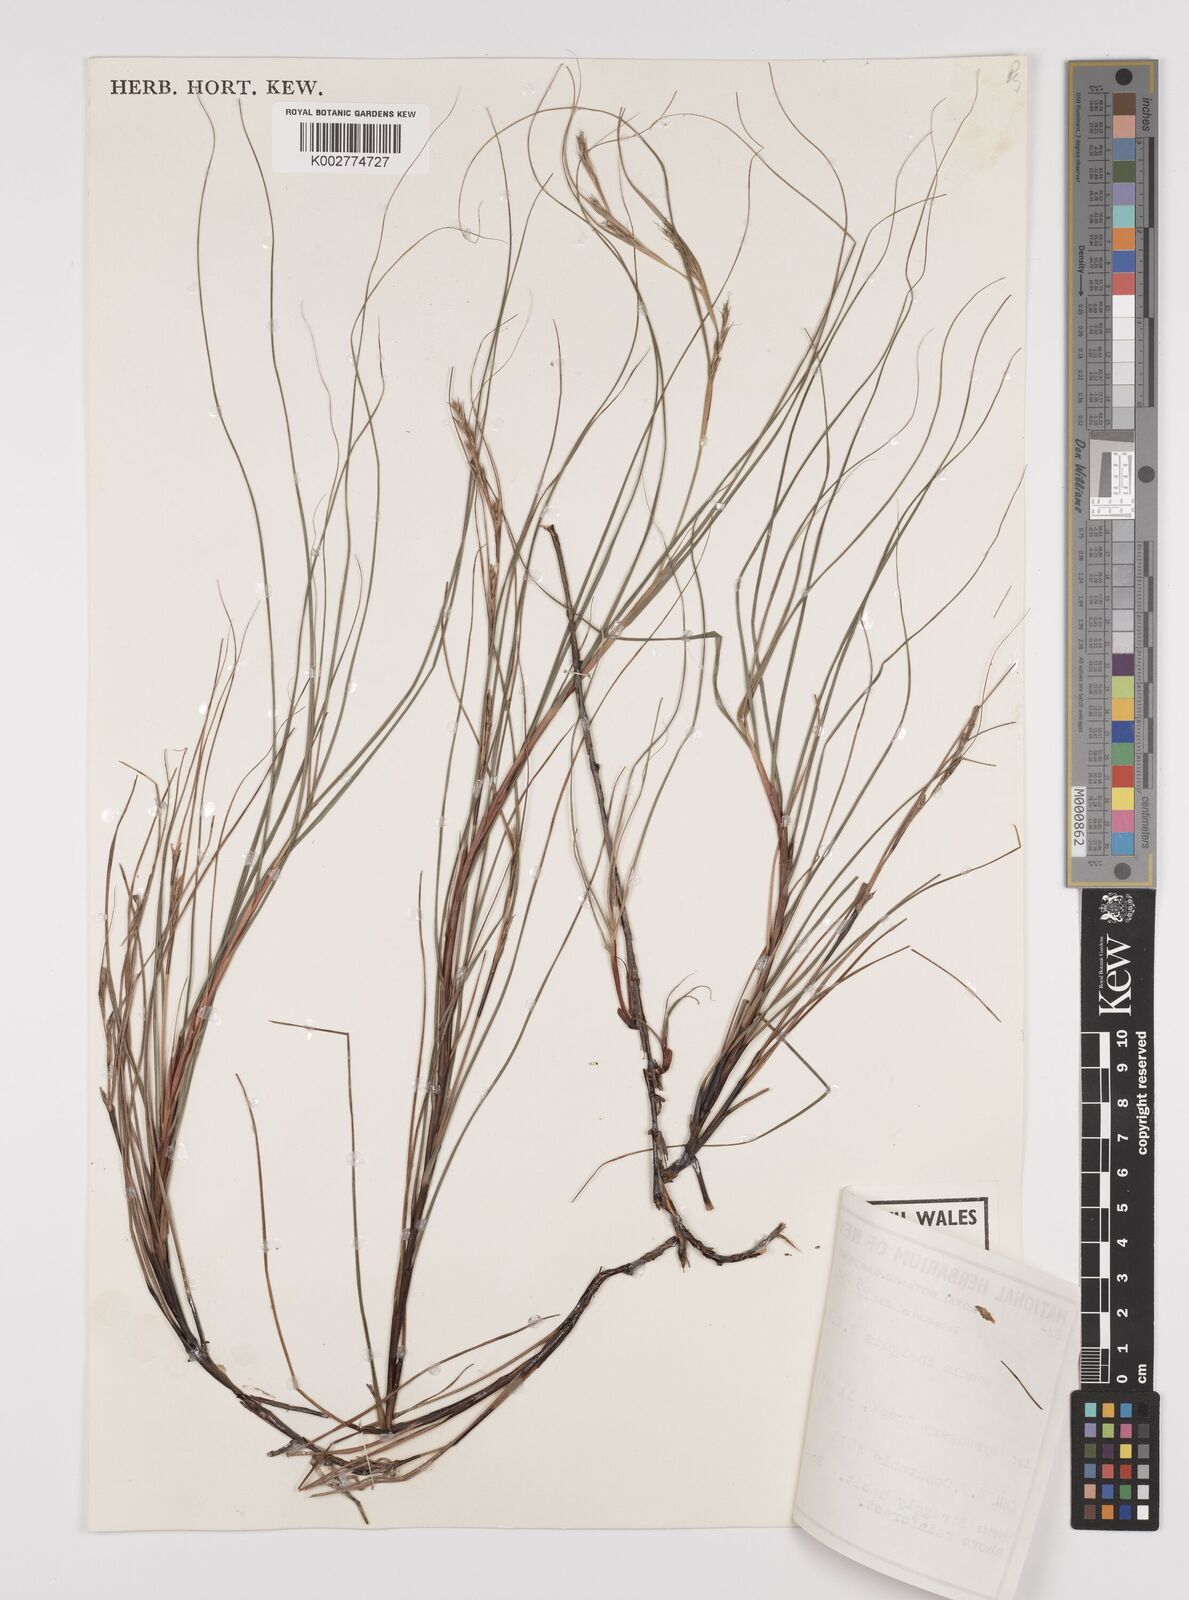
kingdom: Plantae
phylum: Tracheophyta
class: Liliopsida
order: Poales
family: Cyperaceae
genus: Gahnia
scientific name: Gahnia insignis
